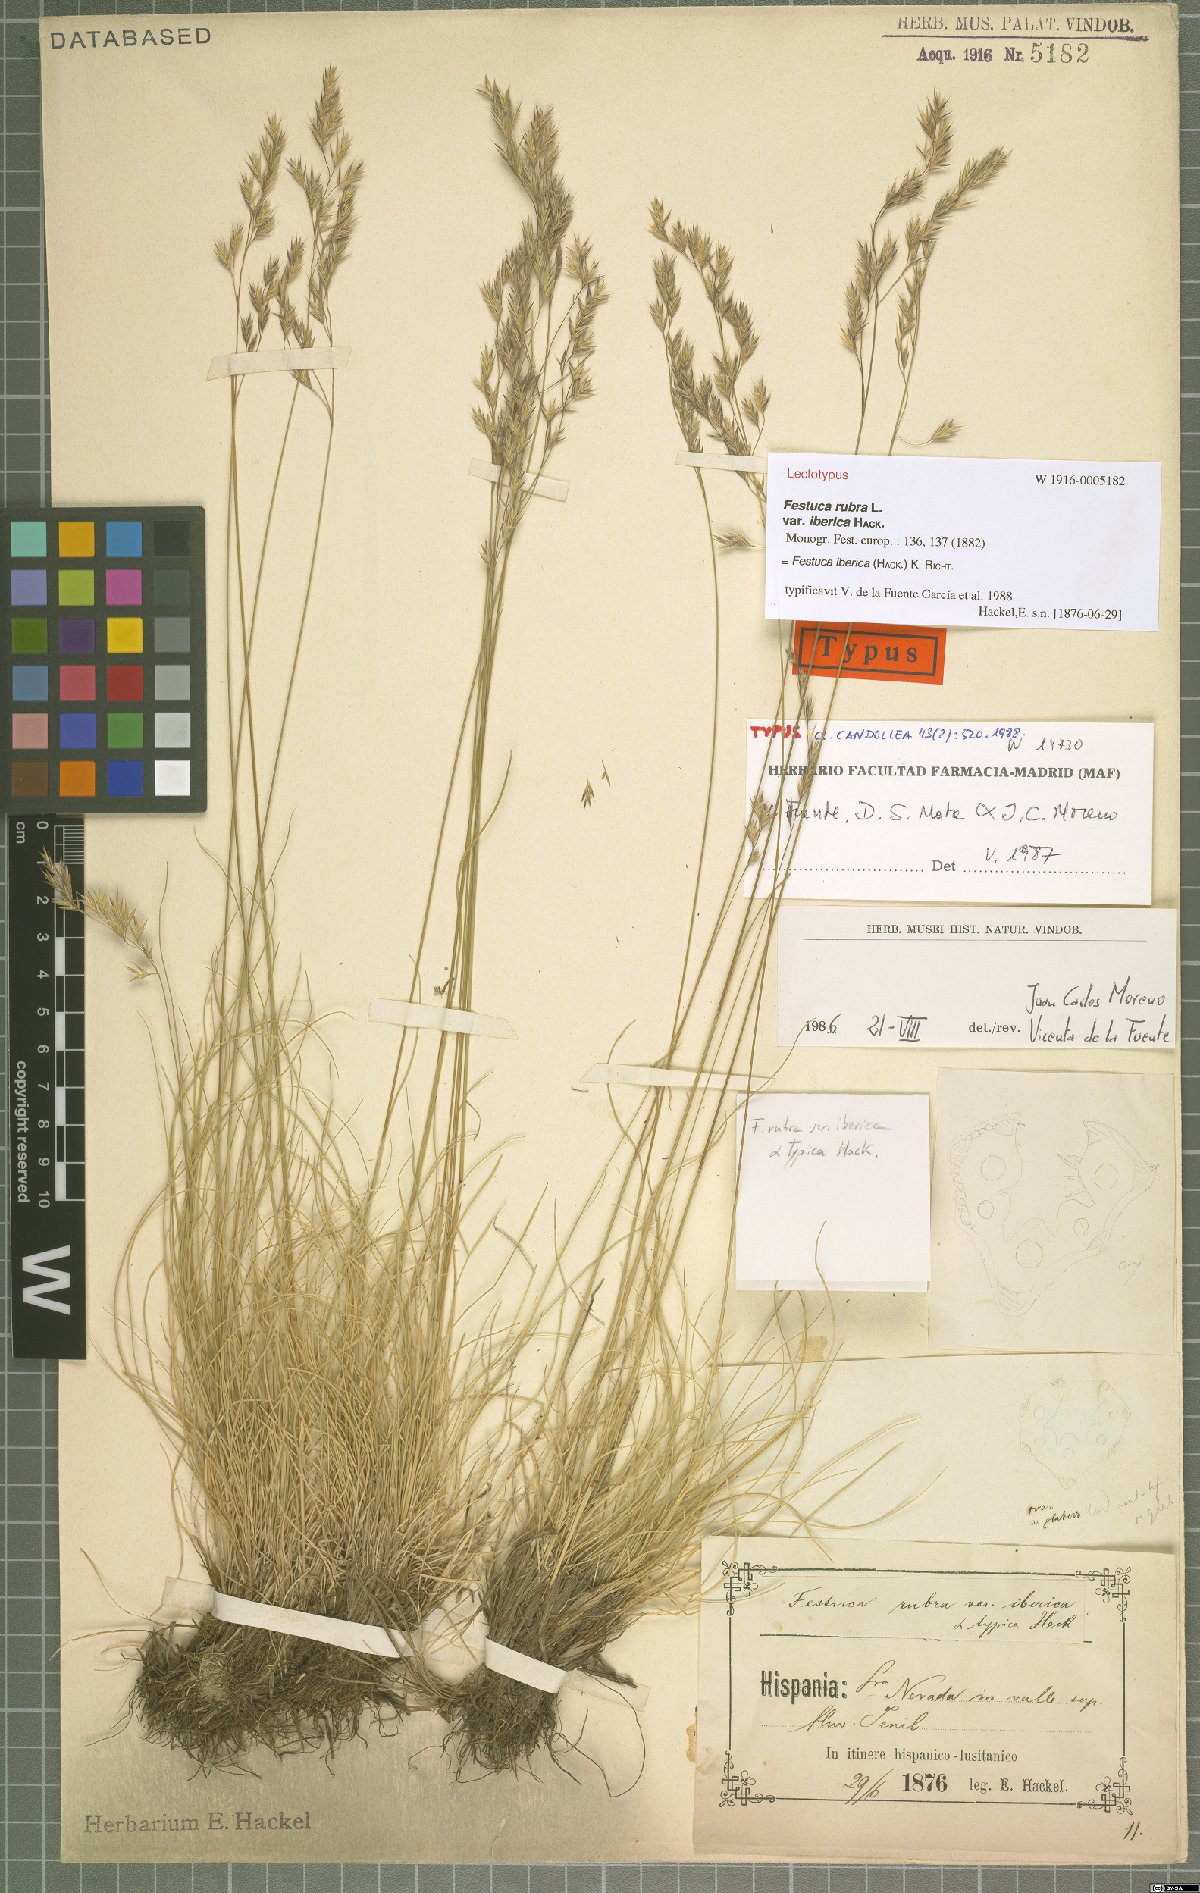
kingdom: Plantae
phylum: Tracheophyta
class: Liliopsida
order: Poales
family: Poaceae
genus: Festuca
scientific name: Festuca iberica
